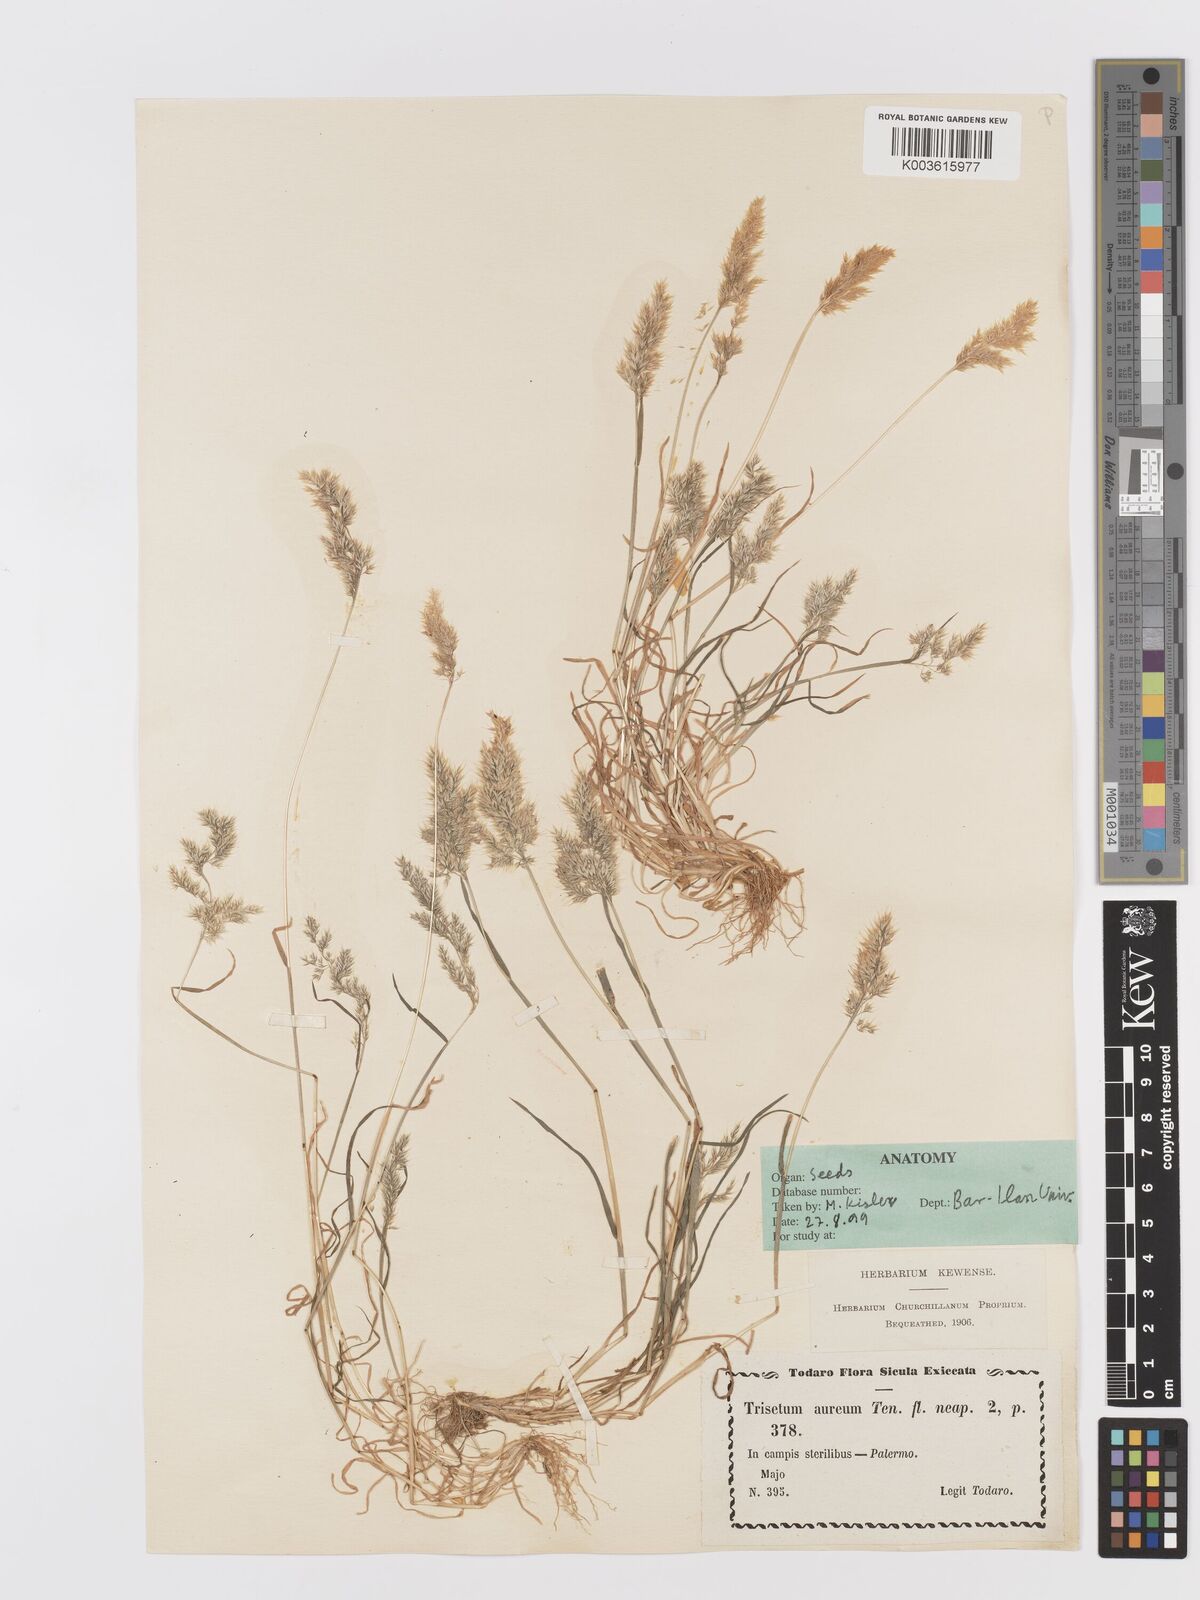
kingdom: Plantae
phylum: Tracheophyta
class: Liliopsida
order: Poales
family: Poaceae
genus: Trisetaria
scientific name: Trisetaria aurea
